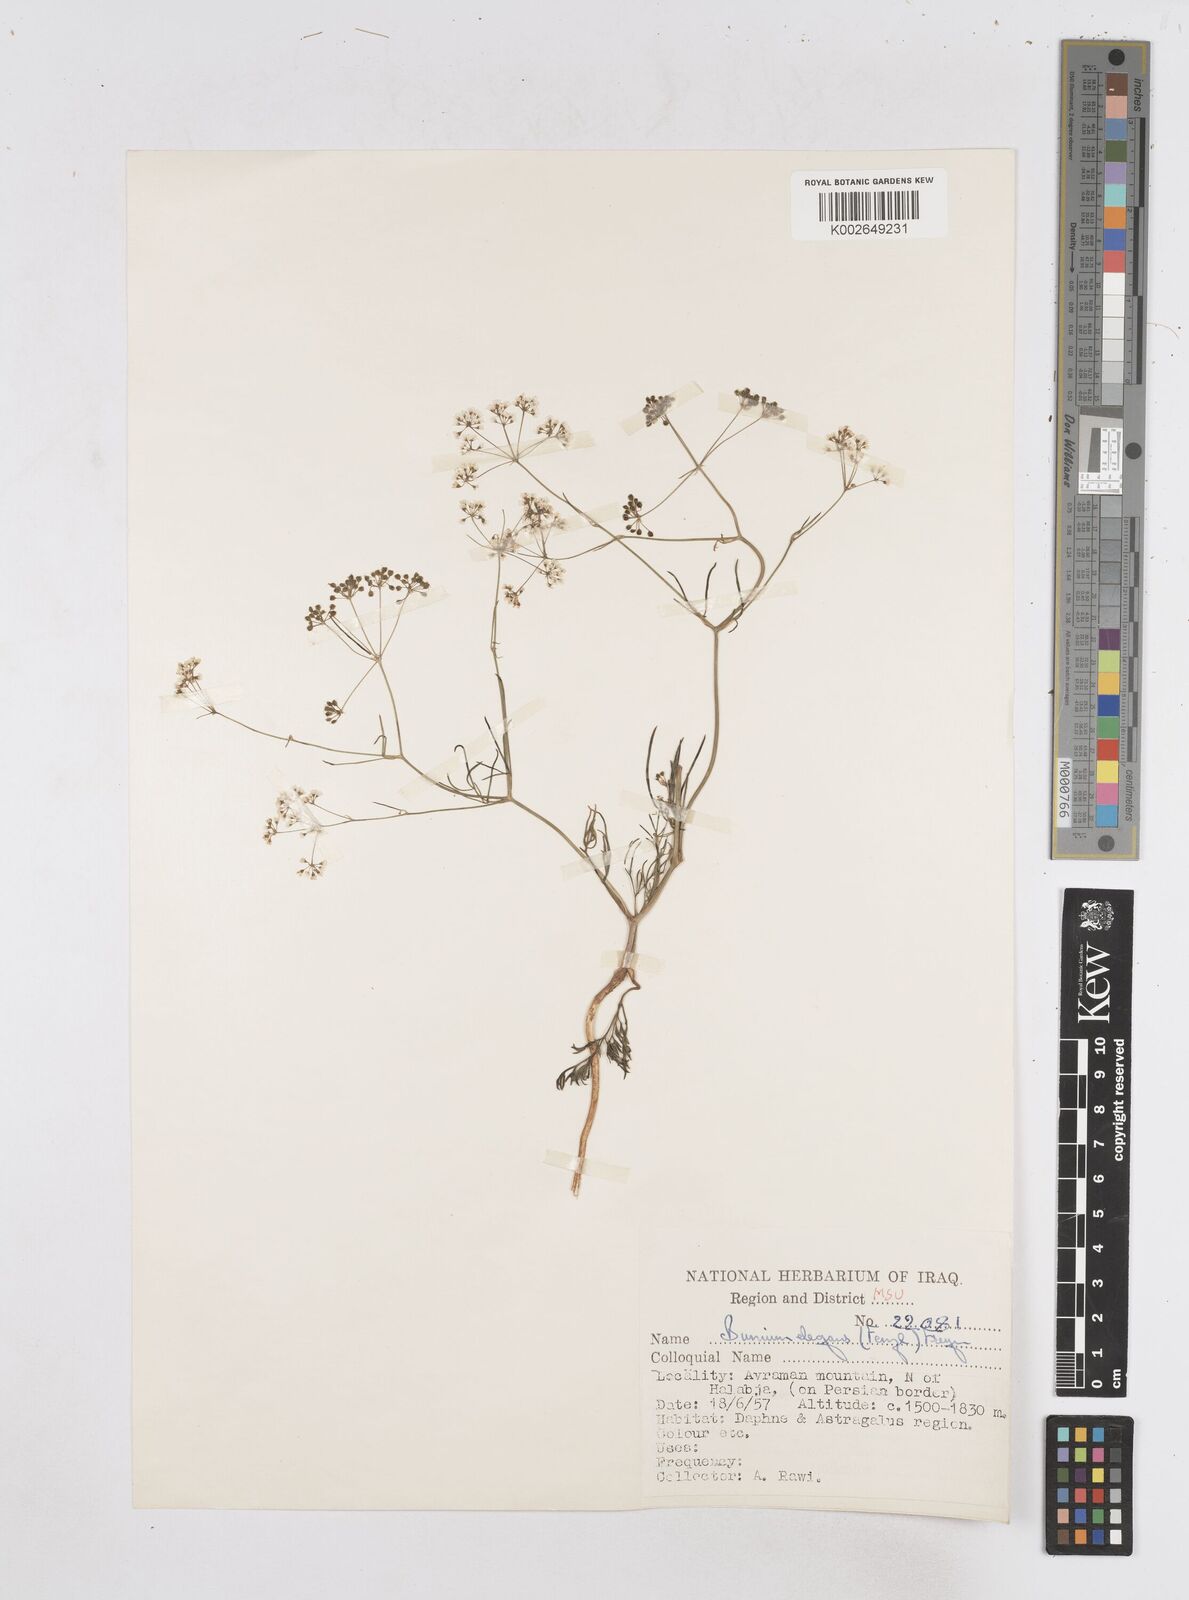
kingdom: Plantae
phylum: Tracheophyta
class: Magnoliopsida
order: Apiales
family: Apiaceae
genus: Bunium
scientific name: Bunium paucifolium
